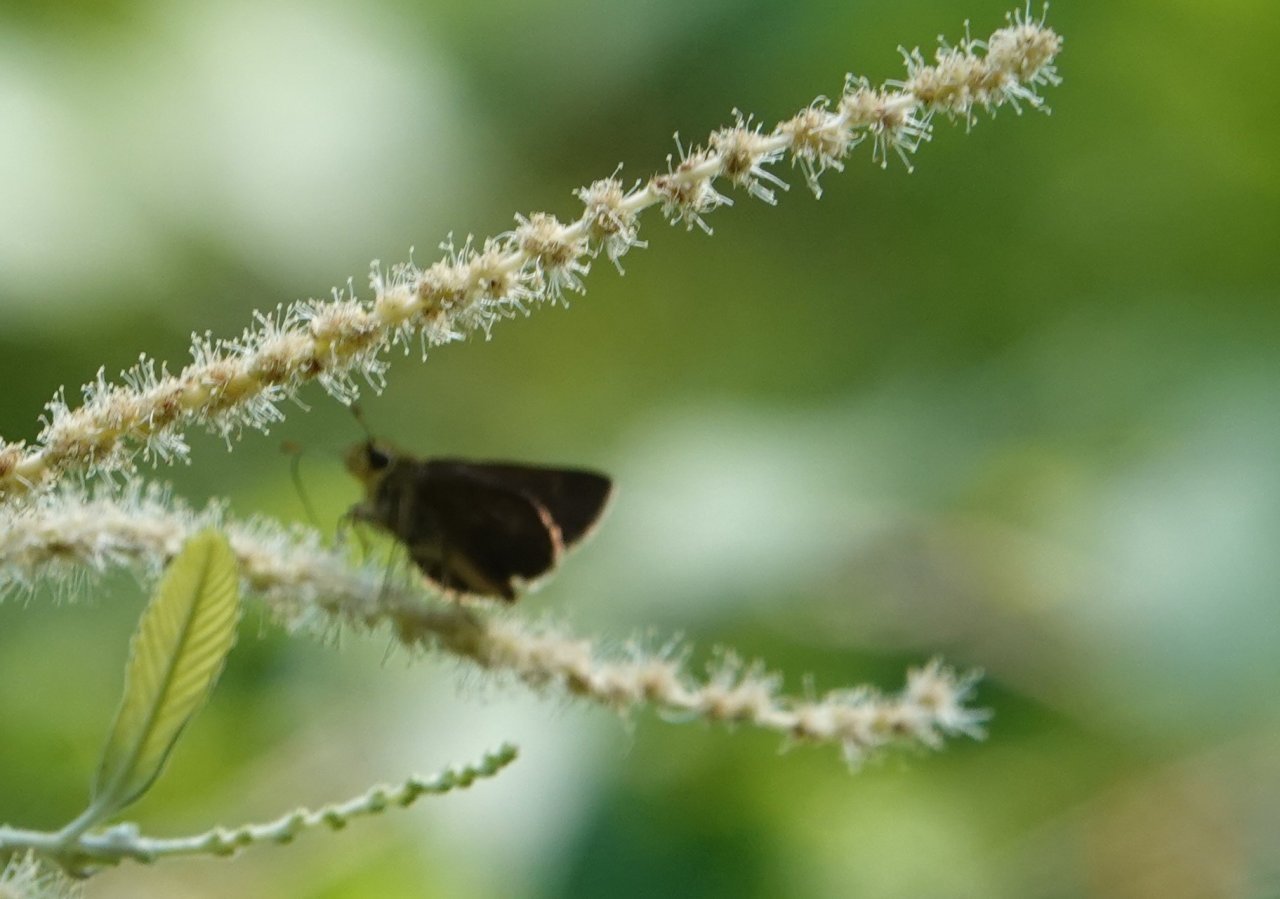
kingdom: Animalia
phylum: Arthropoda
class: Insecta
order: Lepidoptera
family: Hesperiidae
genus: Mastor
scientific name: Mastor alternata
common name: Dusky Roadside-Skipper
